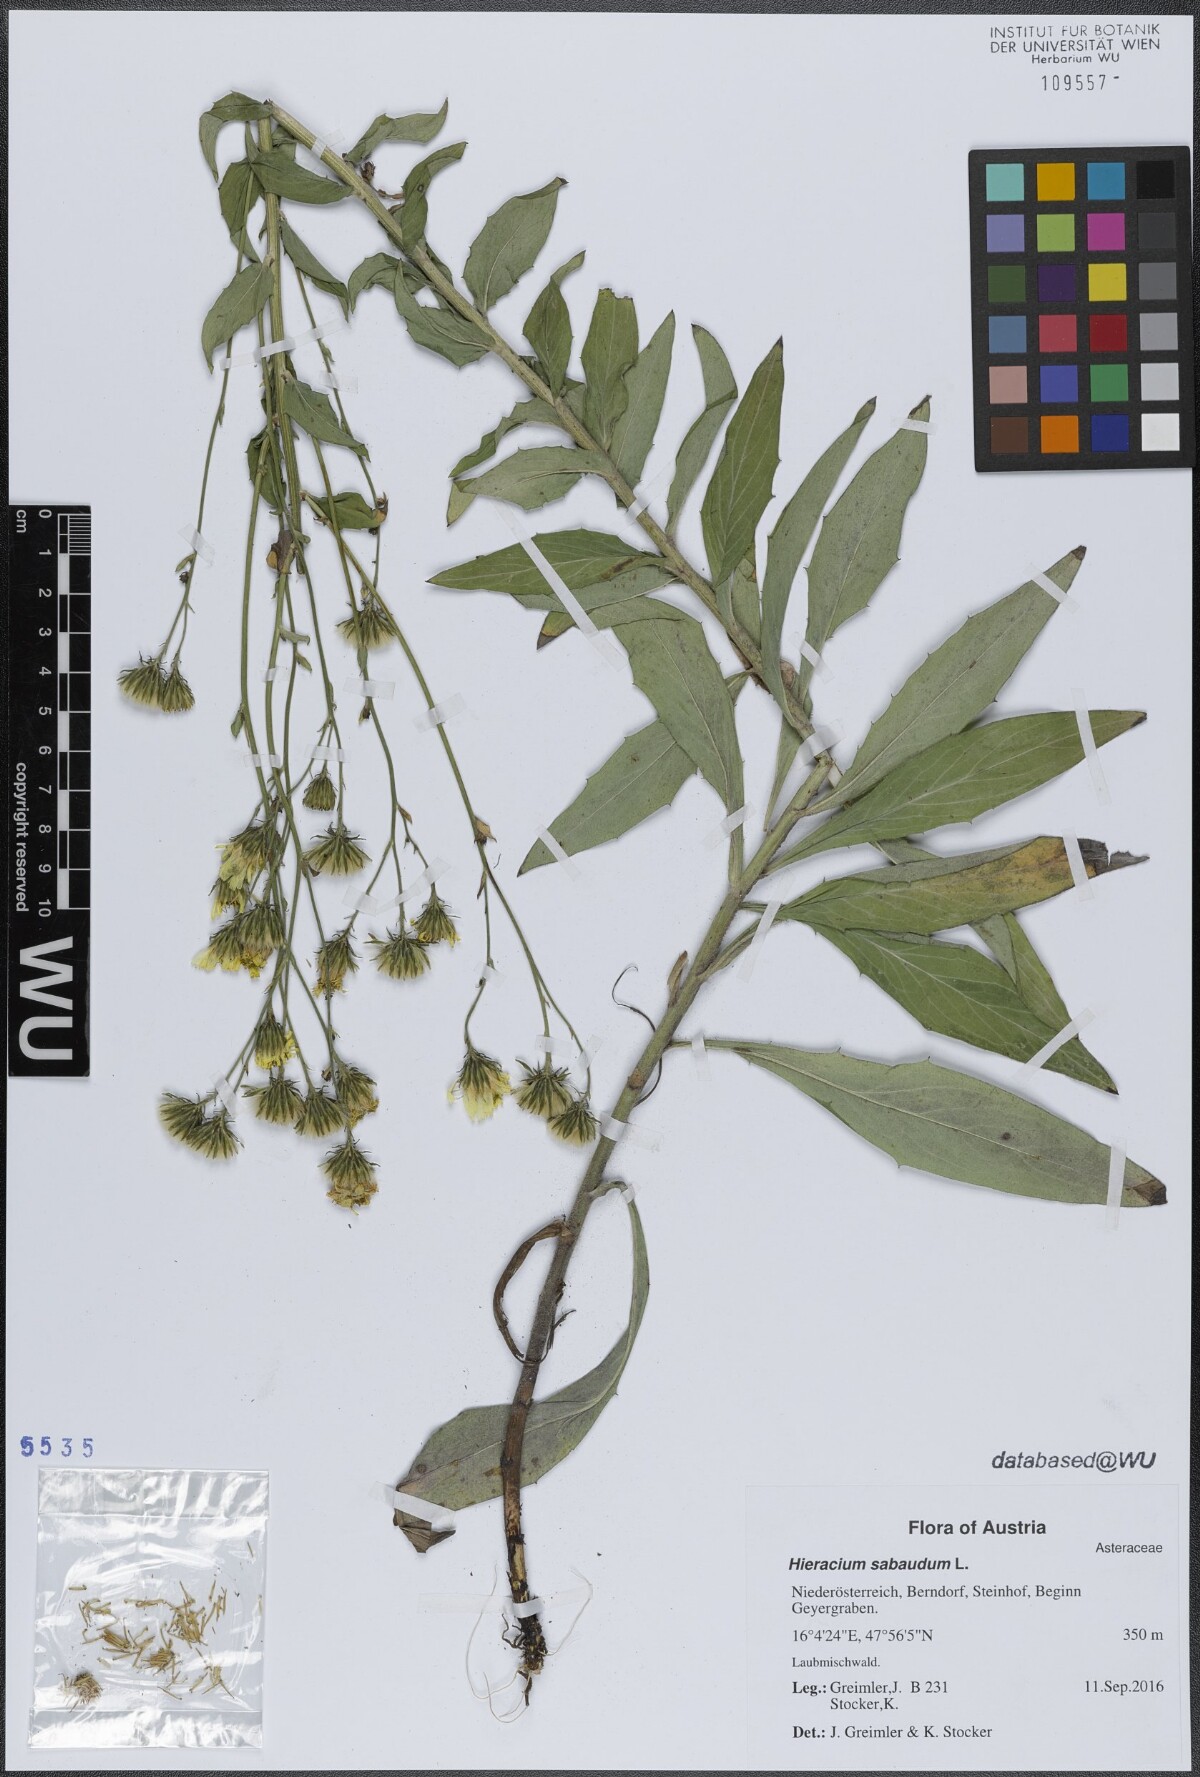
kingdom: Plantae
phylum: Tracheophyta
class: Magnoliopsida
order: Asterales
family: Asteraceae
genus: Hieracium
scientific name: Hieracium sabaudum
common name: New england hawkweed
